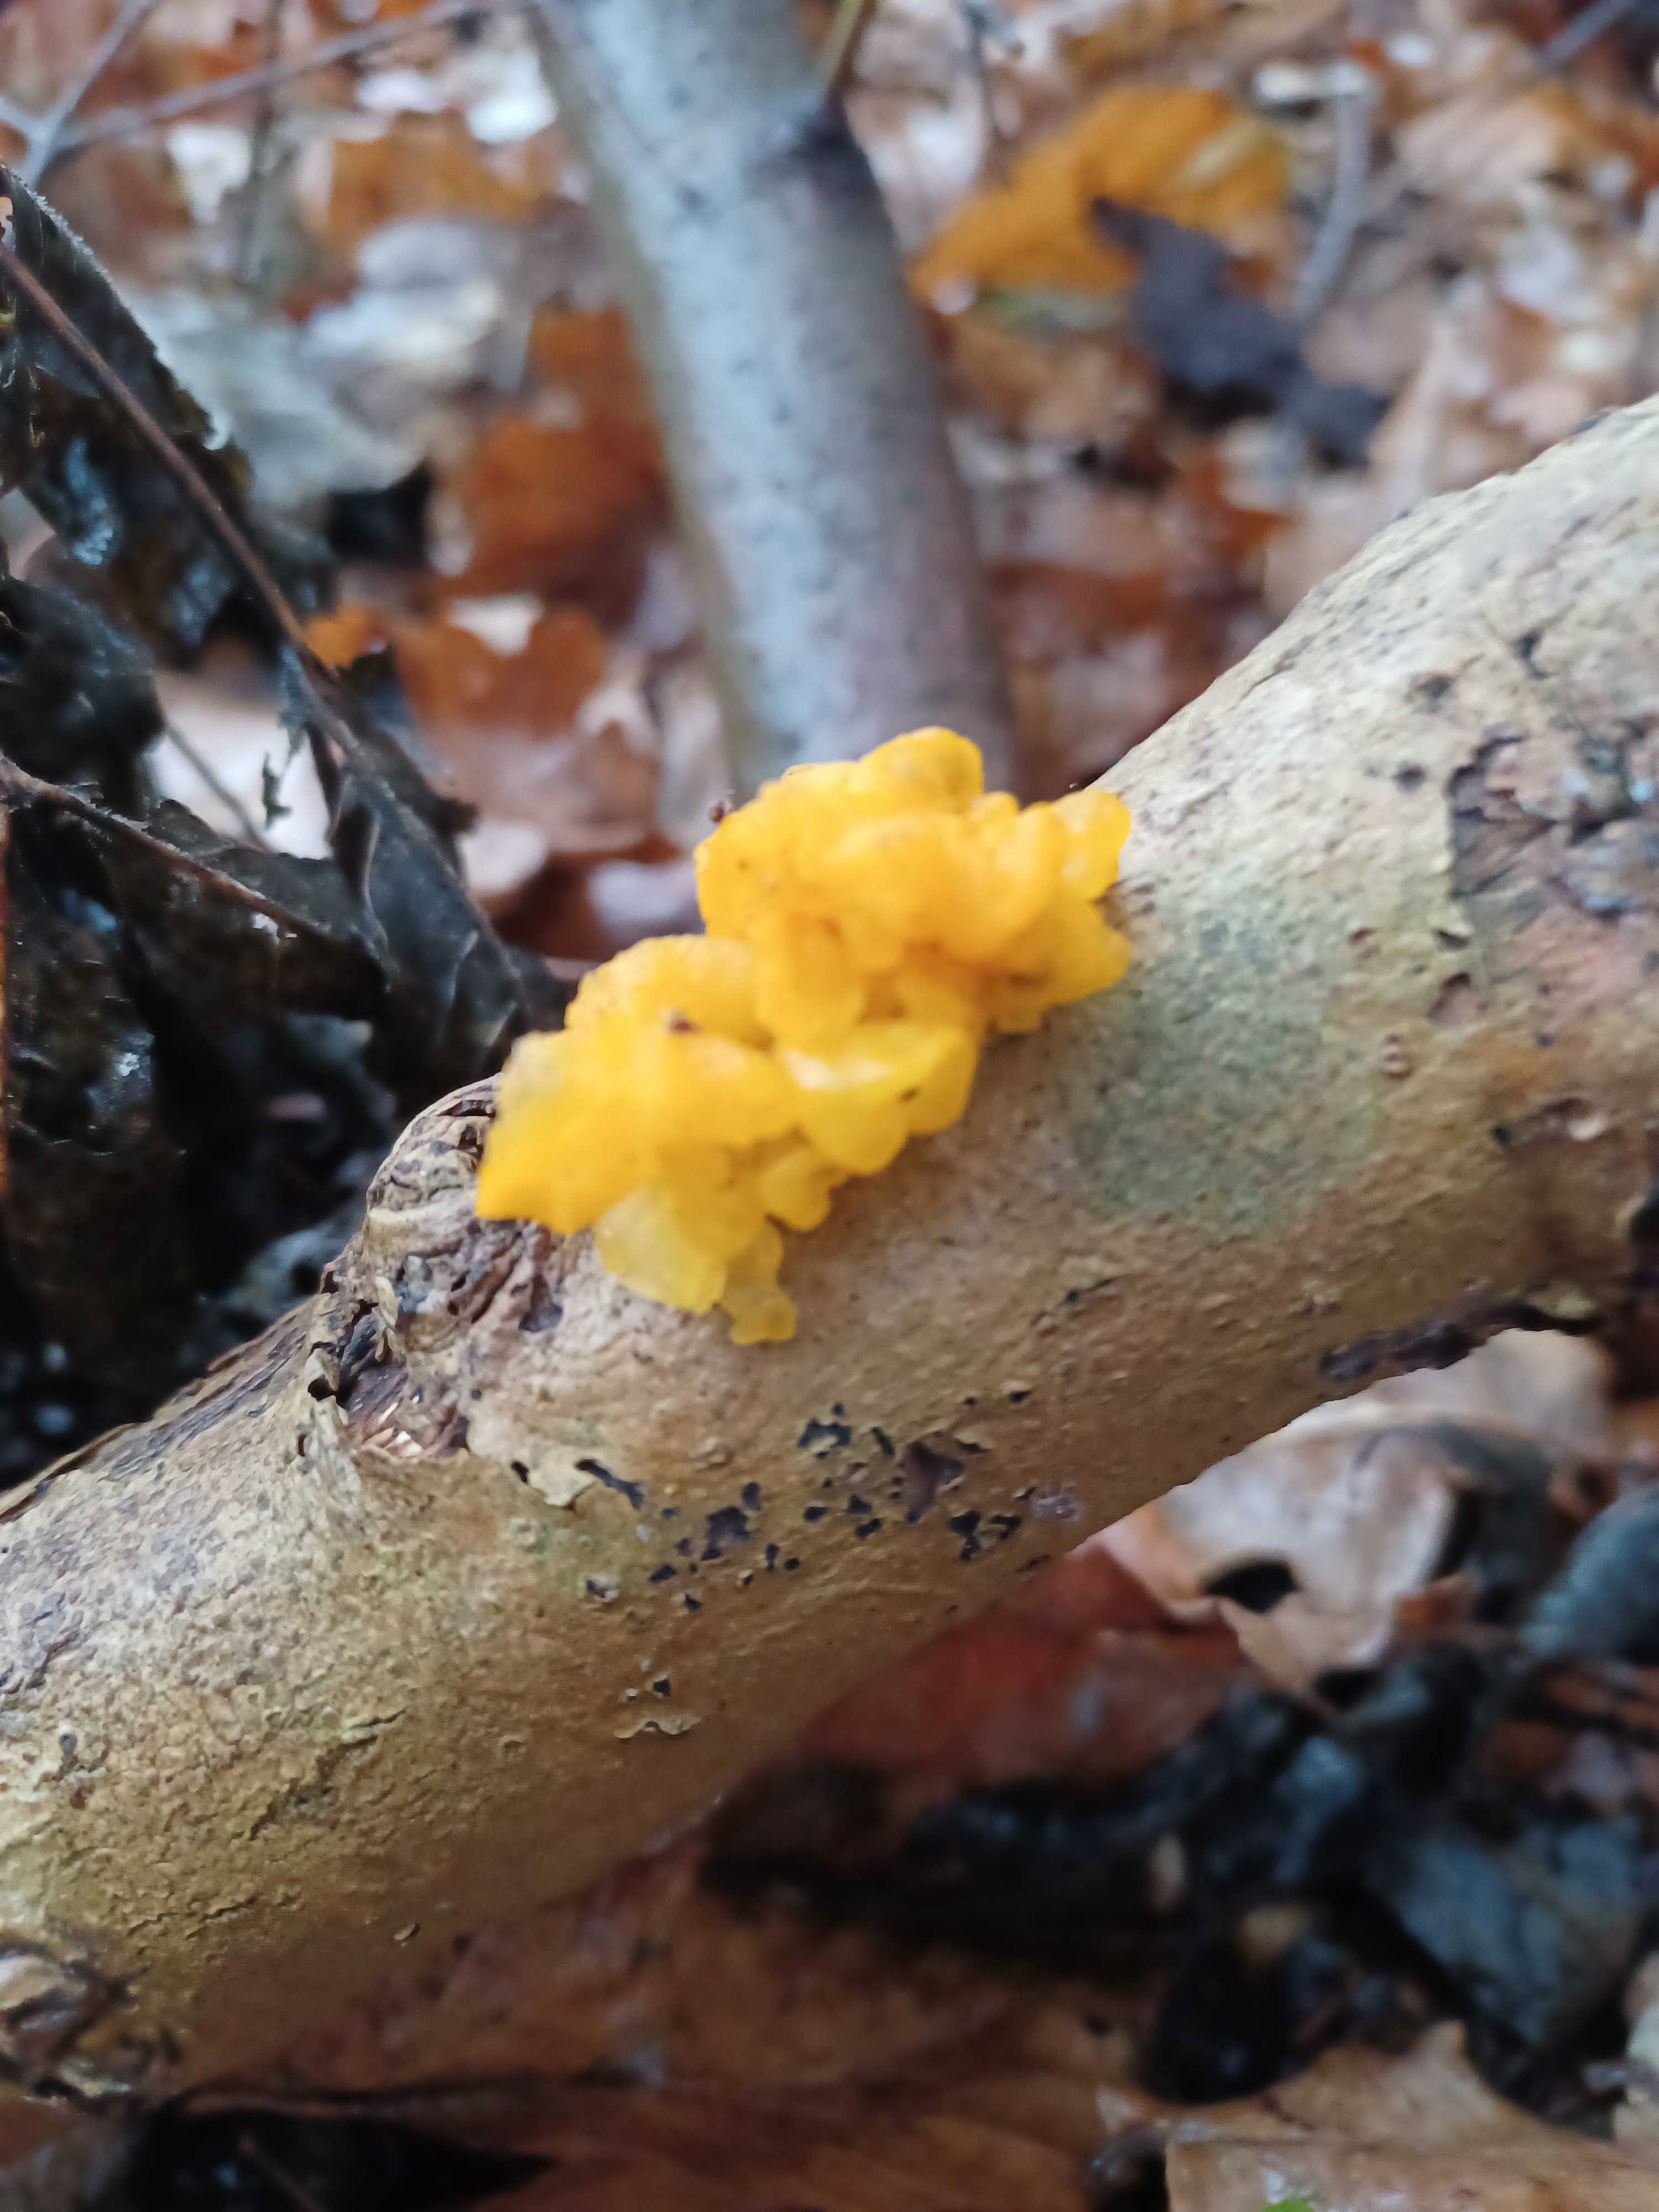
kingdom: Fungi
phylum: Basidiomycota
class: Tremellomycetes
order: Tremellales
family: Tremellaceae
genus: Tremella
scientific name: Tremella mesenterica
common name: gul bævresvamp
